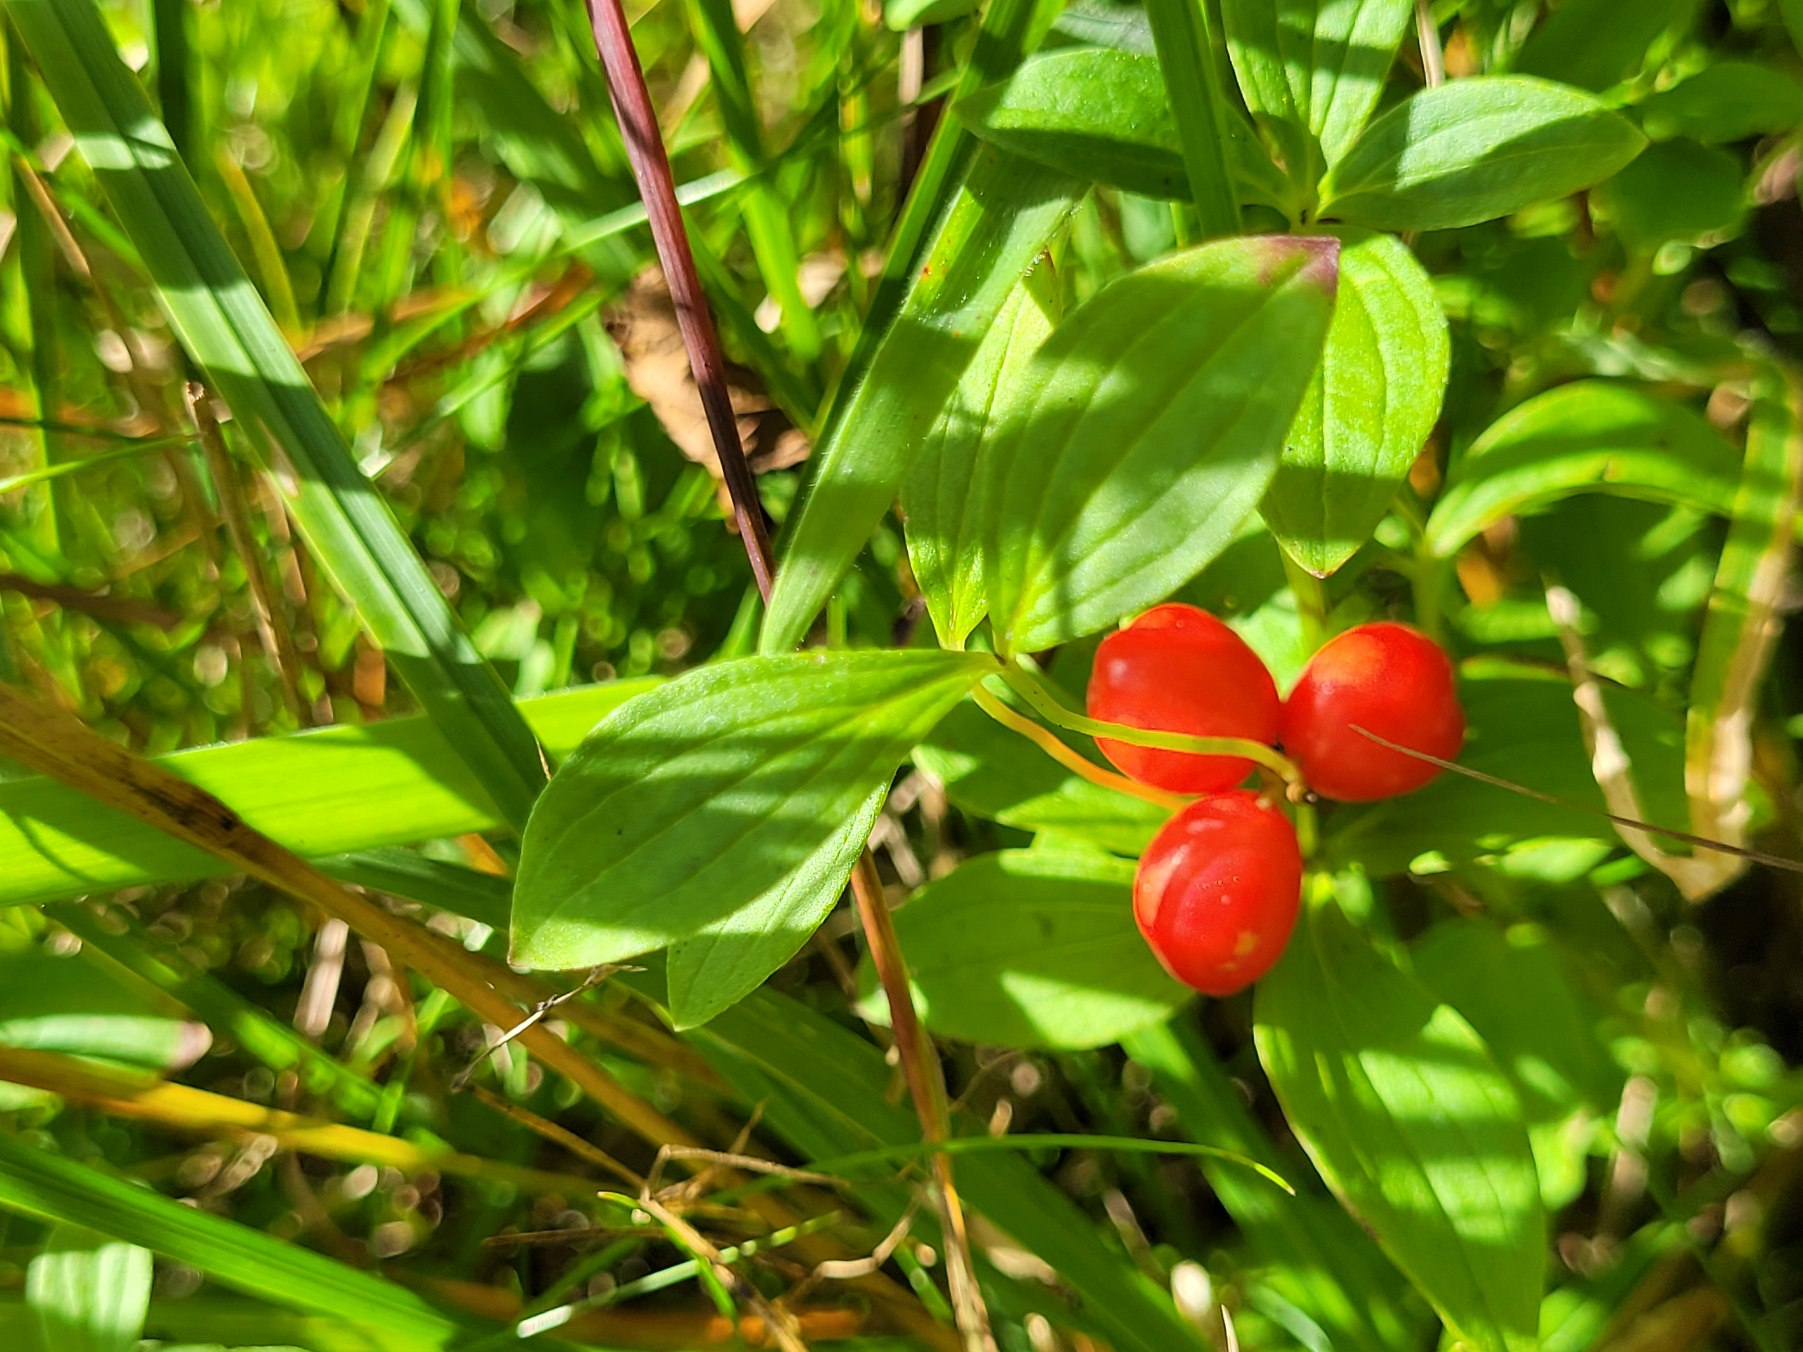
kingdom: Plantae
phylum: Tracheophyta
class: Magnoliopsida
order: Cornales
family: Cornaceae
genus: Cornus
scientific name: Cornus suecica
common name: Hønsebær
